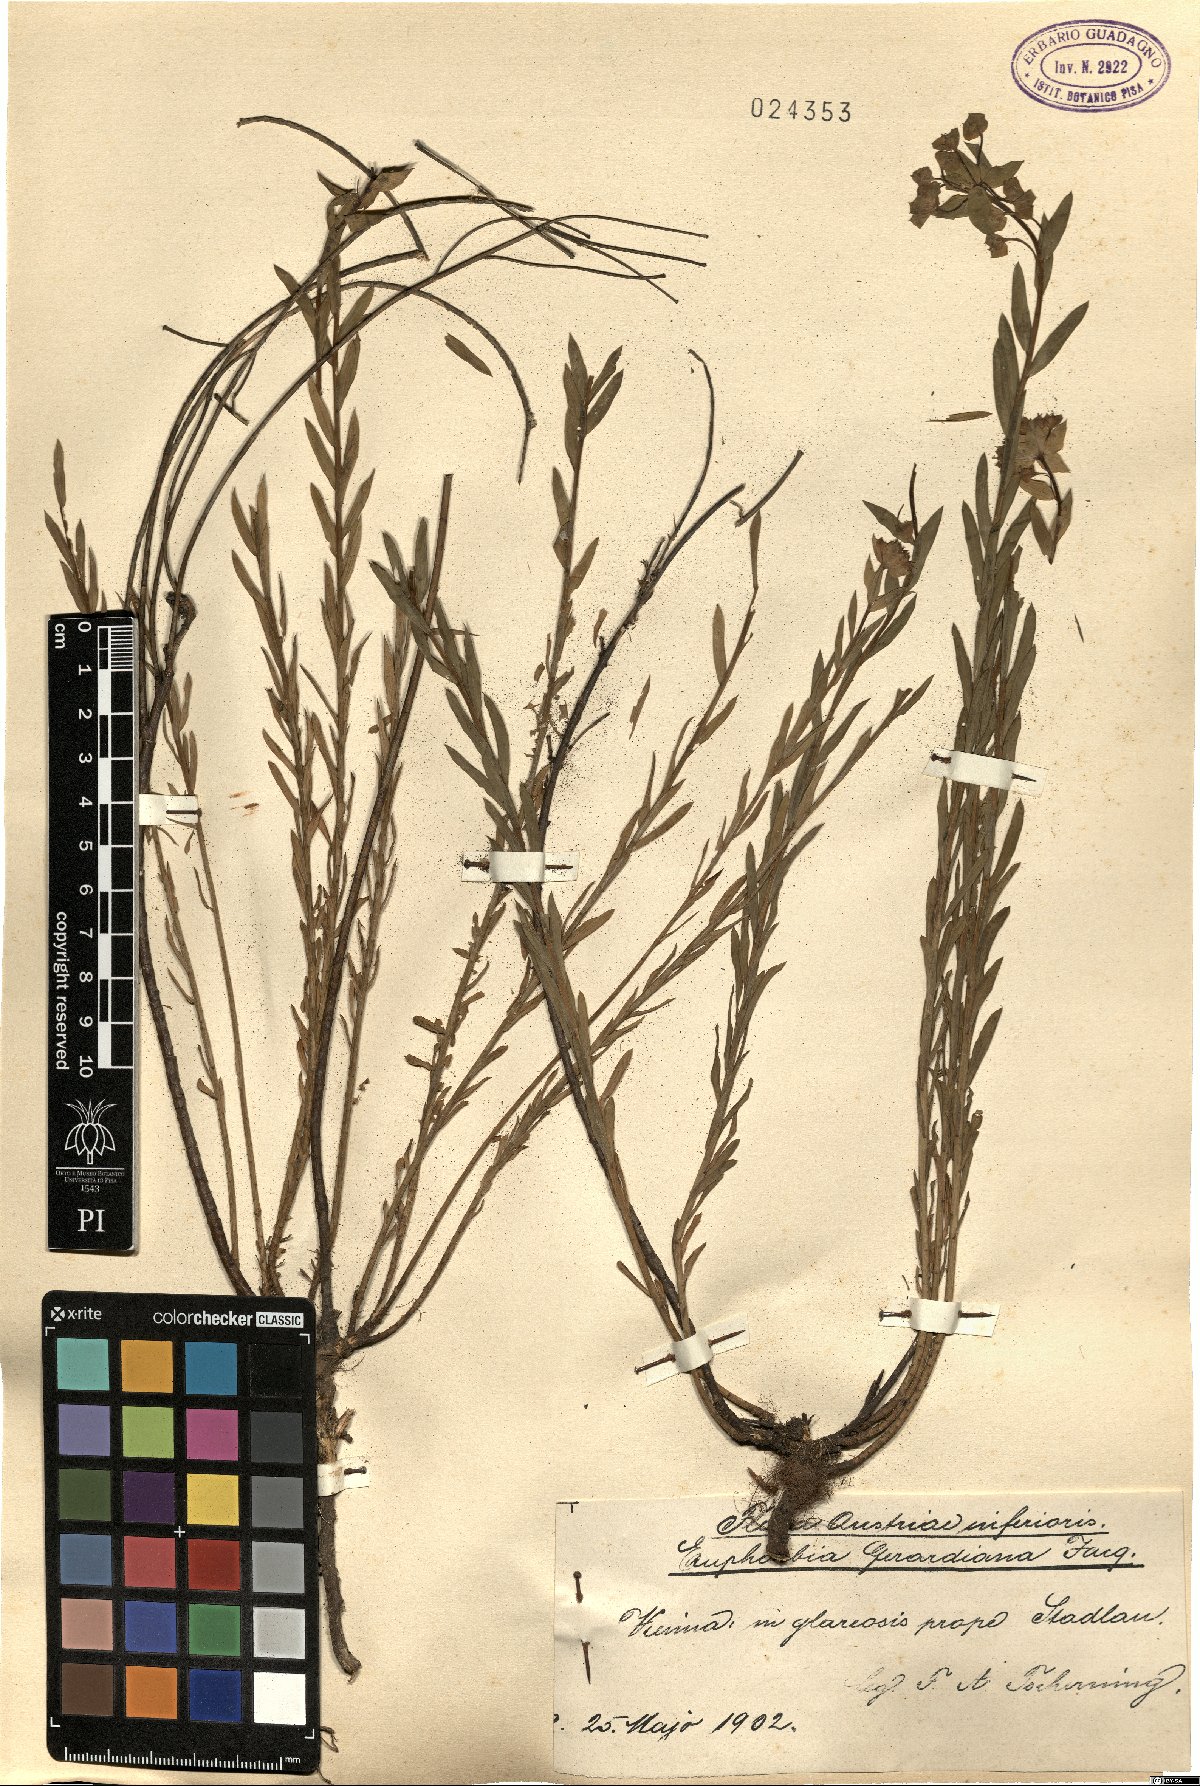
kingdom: Plantae
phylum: Tracheophyta
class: Magnoliopsida
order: Malpighiales
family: Euphorbiaceae
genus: Euphorbia
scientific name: Euphorbia seguieriana
